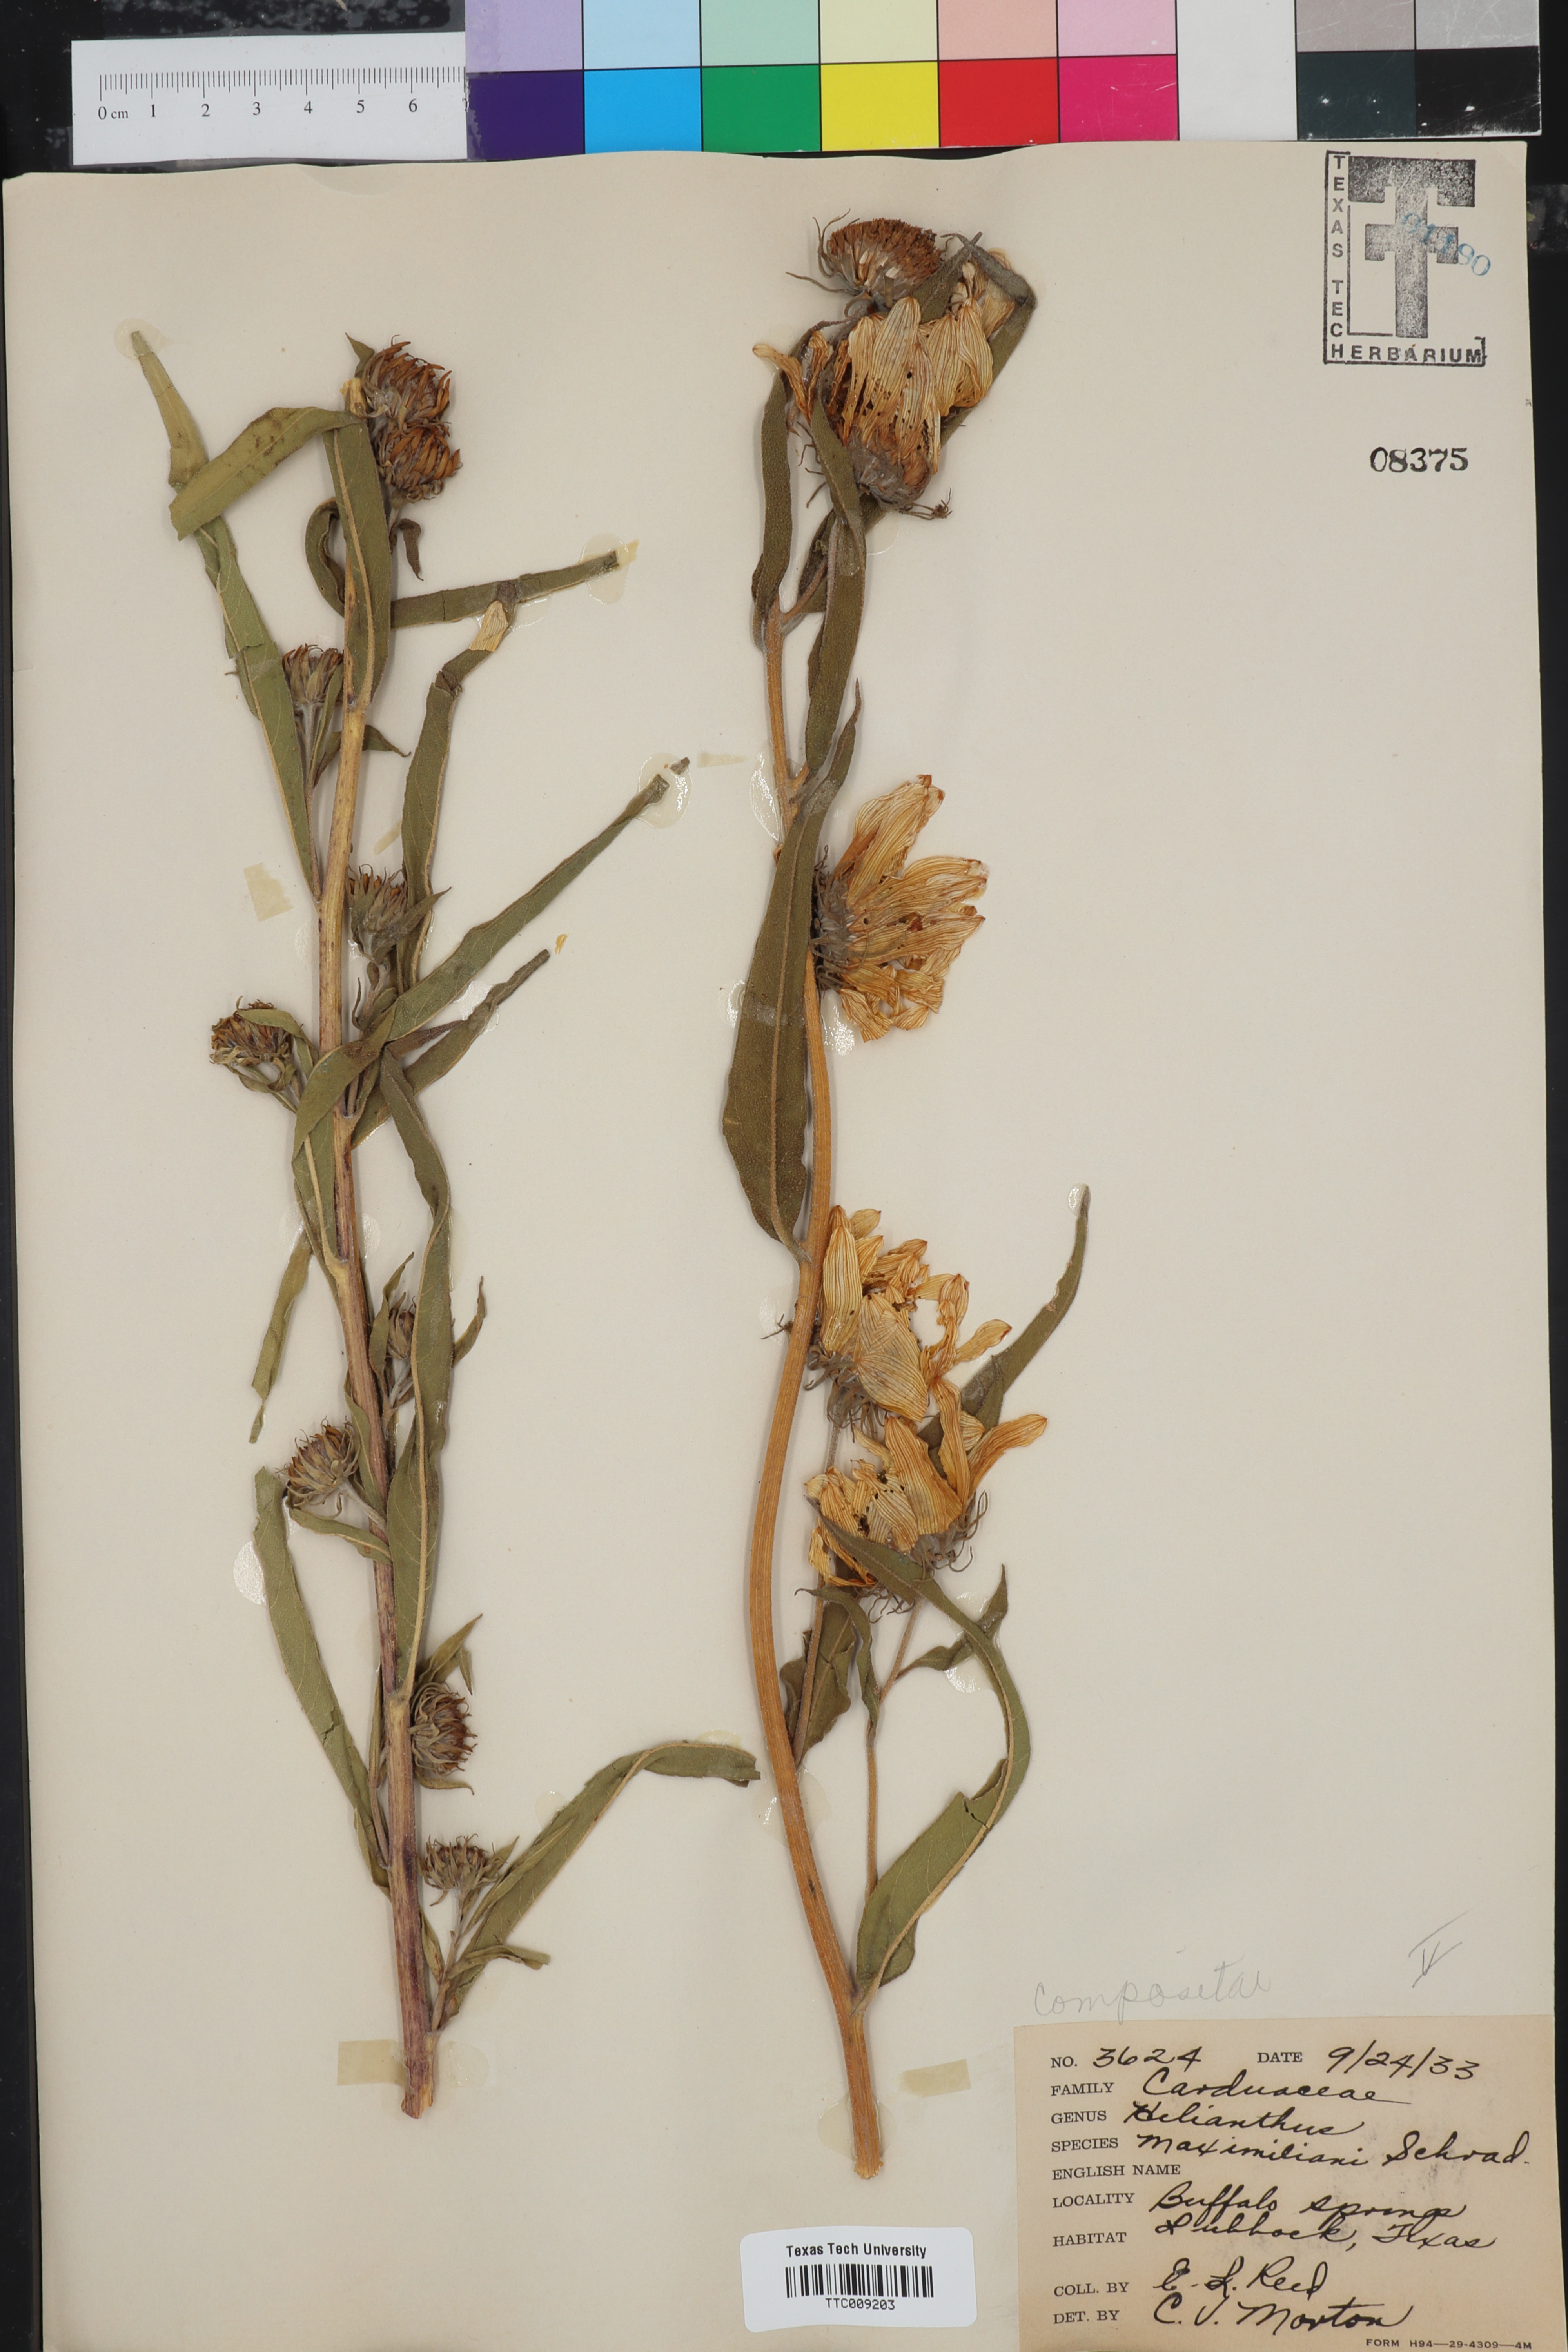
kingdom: Plantae
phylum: Tracheophyta
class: Magnoliopsida
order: Asterales
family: Asteraceae
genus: Helianthus
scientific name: Helianthus maximiliani
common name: Maximilian's sunflower
